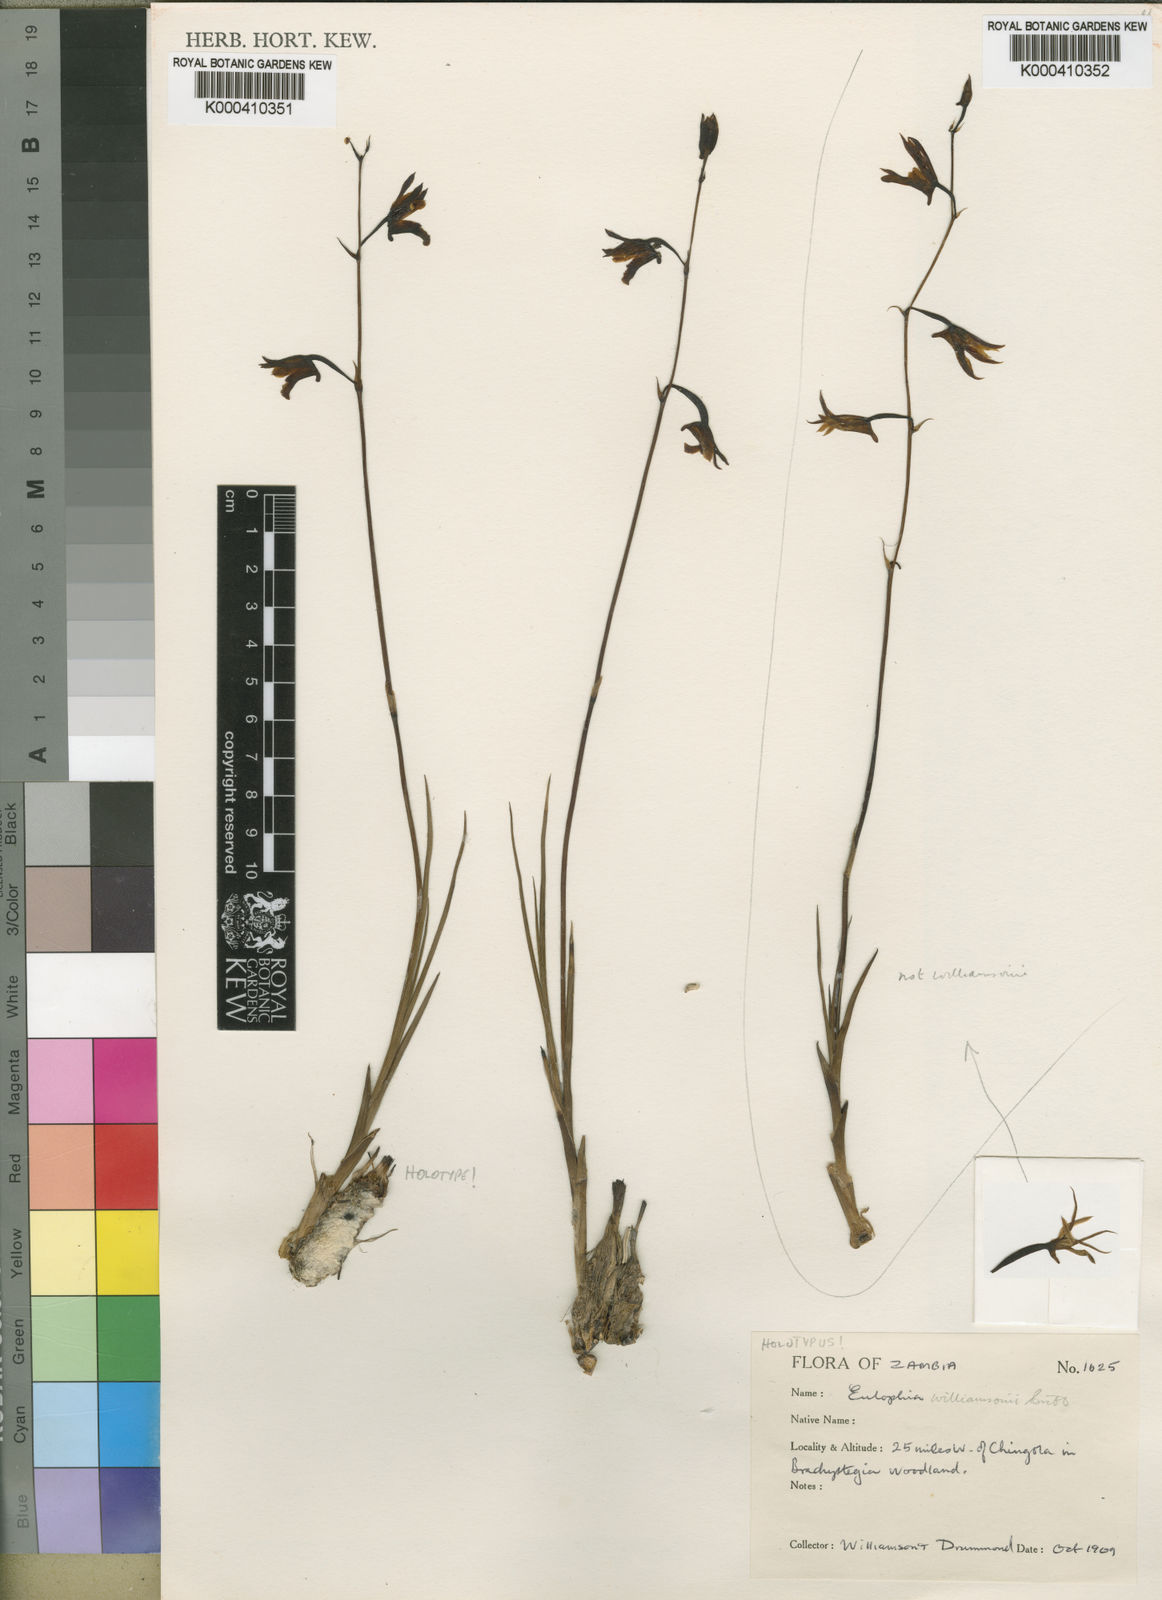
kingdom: Plantae
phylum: Tracheophyta
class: Liliopsida
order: Asparagales
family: Orchidaceae
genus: Eulophia
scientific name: Eulophia rolfeana
